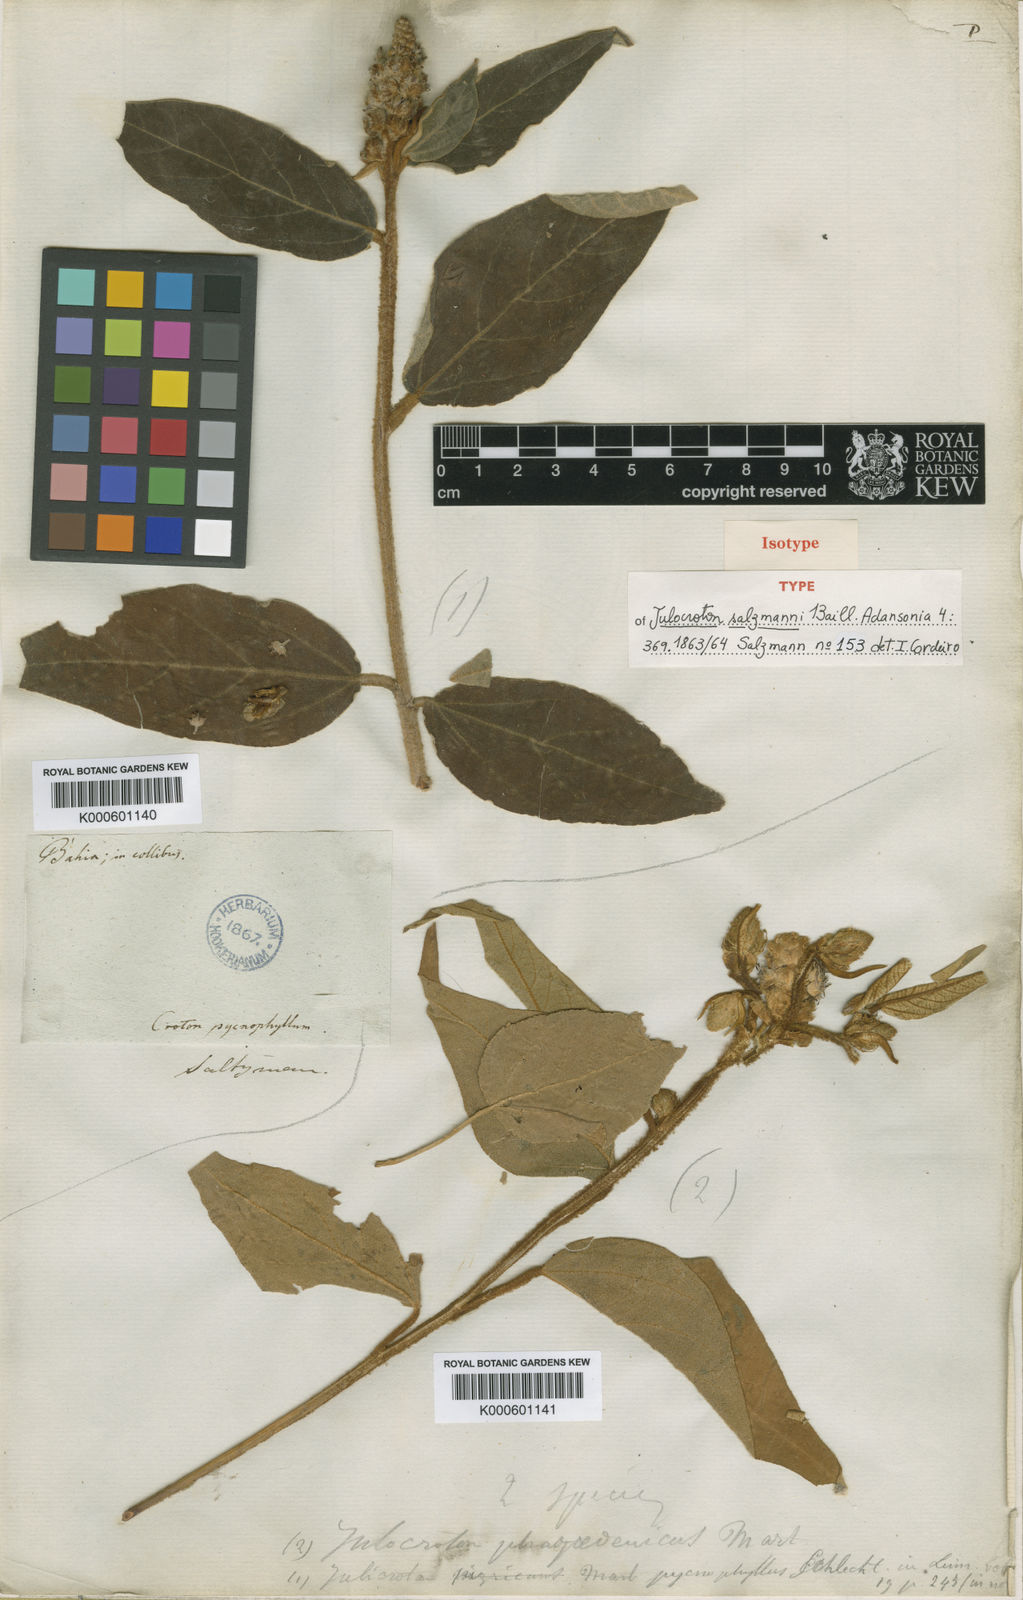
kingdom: Plantae
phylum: Tracheophyta
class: Magnoliopsida
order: Malpighiales
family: Euphorbiaceae
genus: Croton
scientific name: Croton salzmannii
